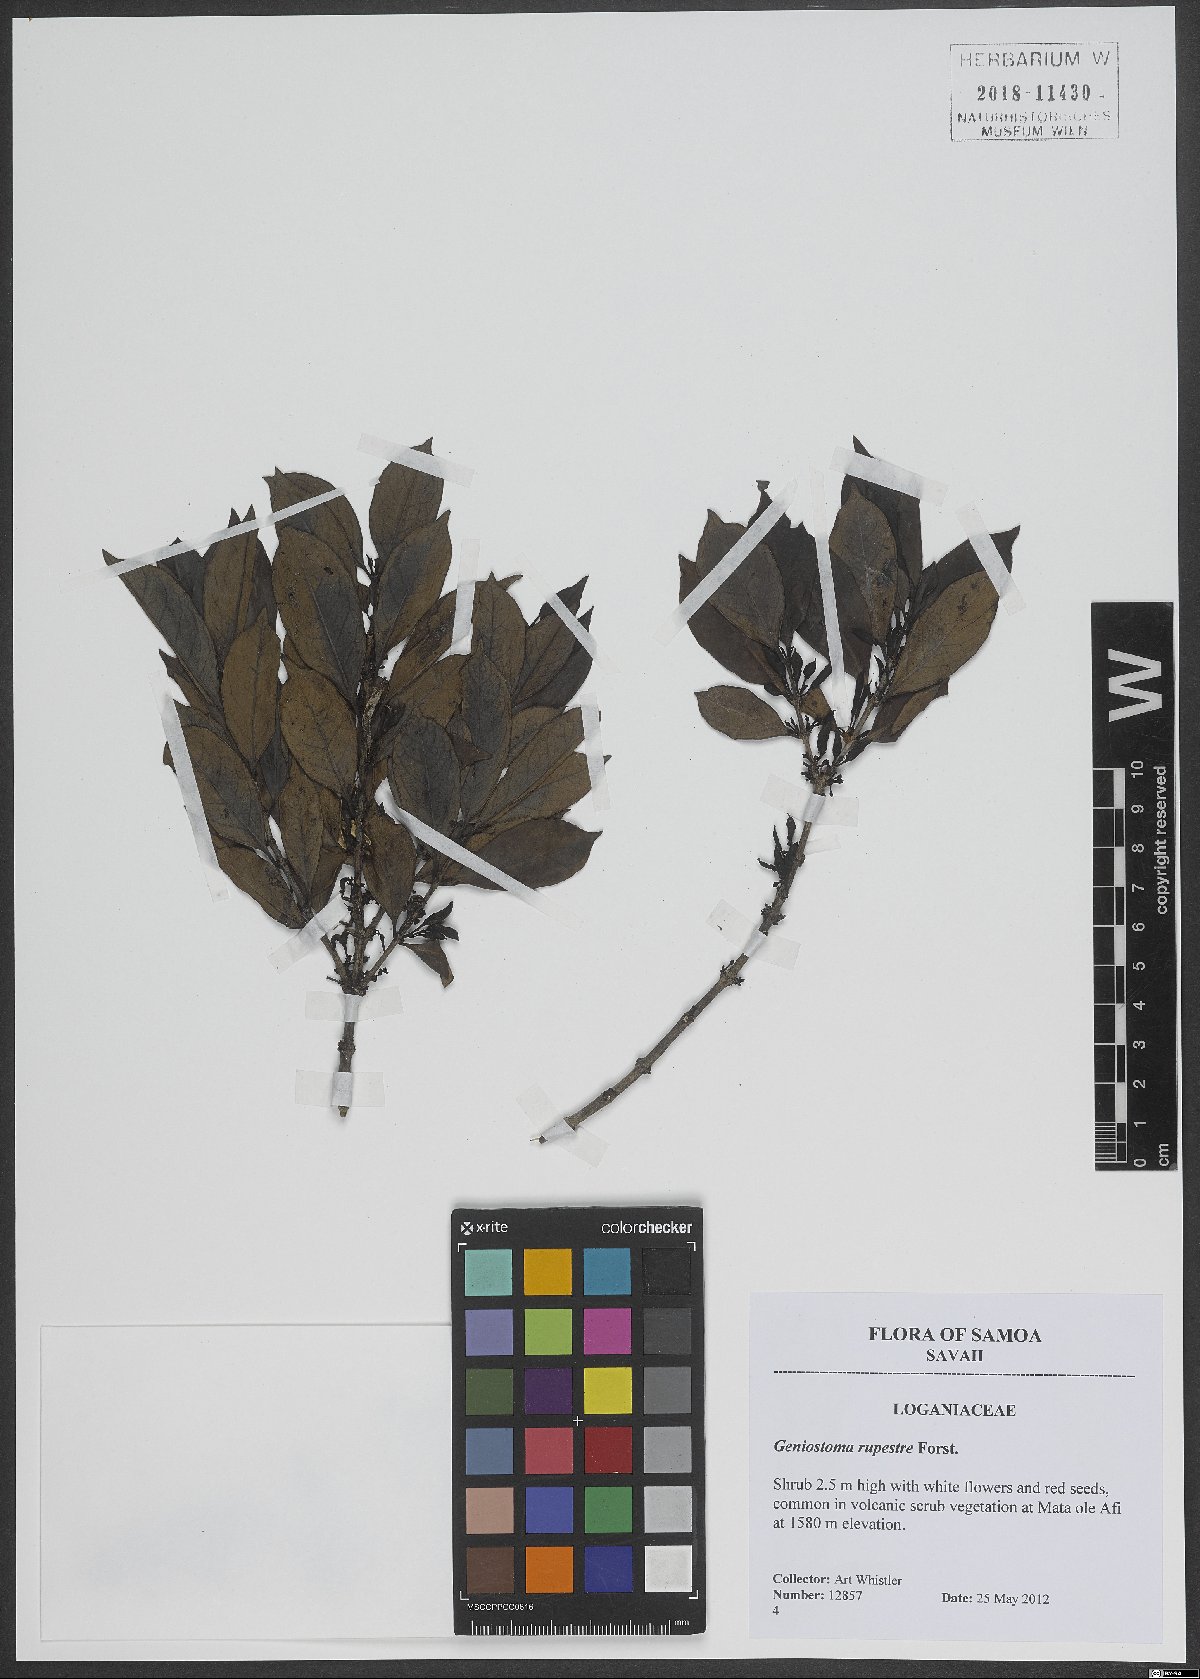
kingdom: Plantae
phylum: Tracheophyta
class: Magnoliopsida
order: Gentianales
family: Loganiaceae
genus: Geniostoma
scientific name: Geniostoma rupestre
